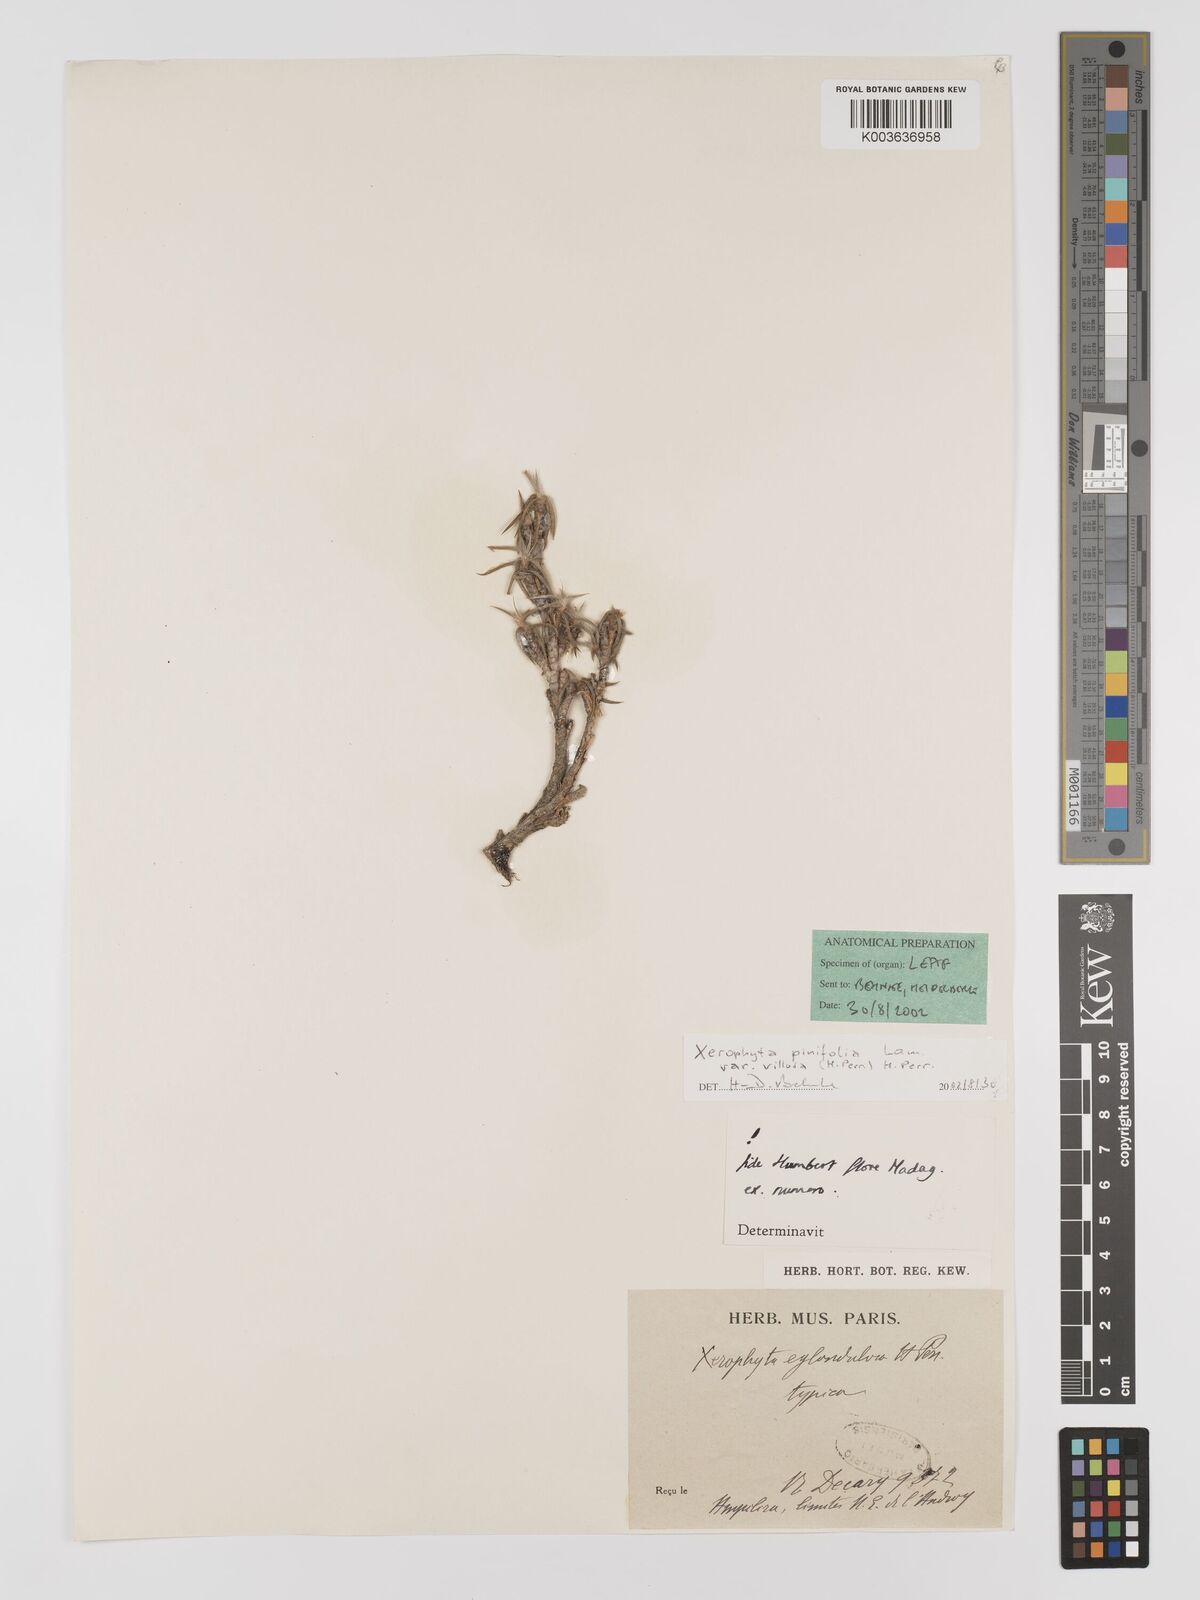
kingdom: Plantae
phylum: Tracheophyta
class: Liliopsida
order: Pandanales
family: Velloziaceae
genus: Xerophyta
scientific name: Xerophyta
